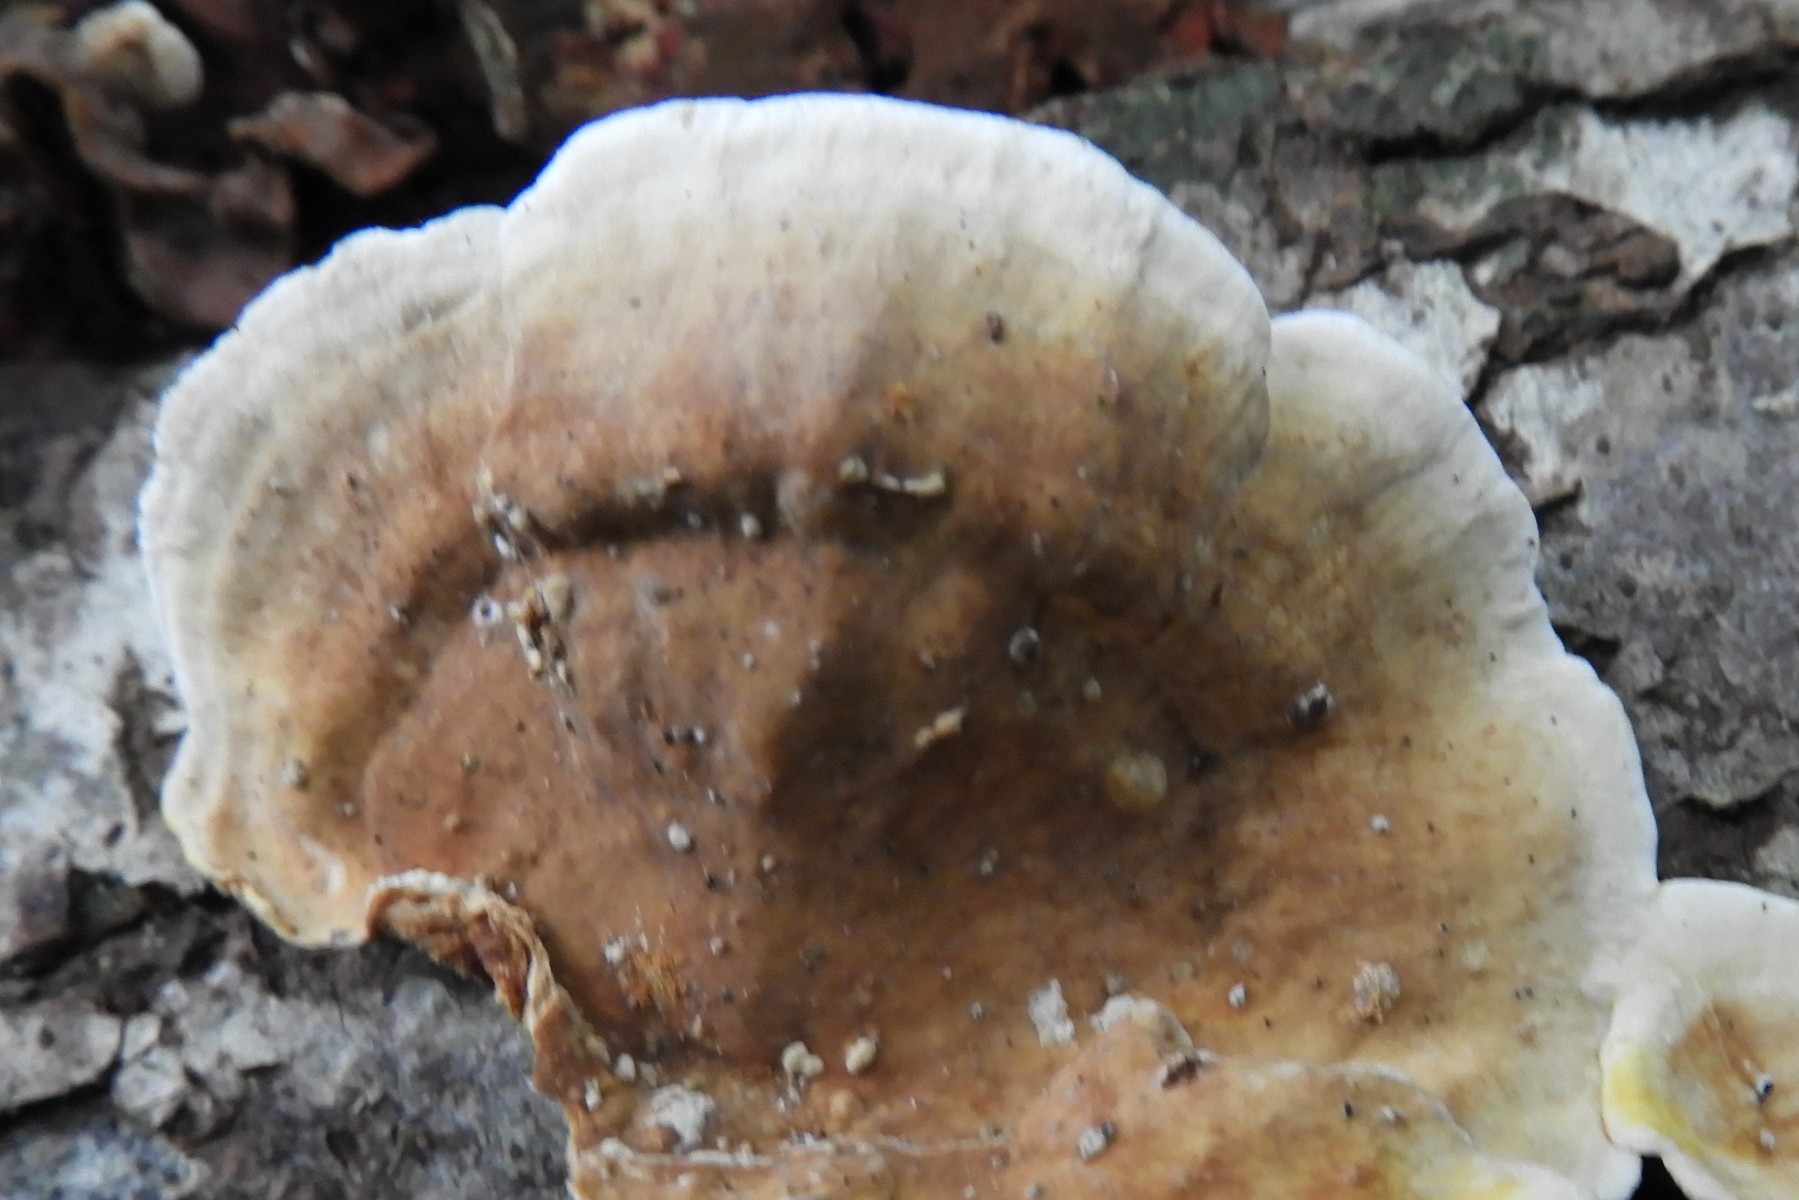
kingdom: Fungi
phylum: Basidiomycota
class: Agaricomycetes
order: Russulales
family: Stereaceae
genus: Stereum
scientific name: Stereum subtomentosum
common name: smuk lædersvamp
